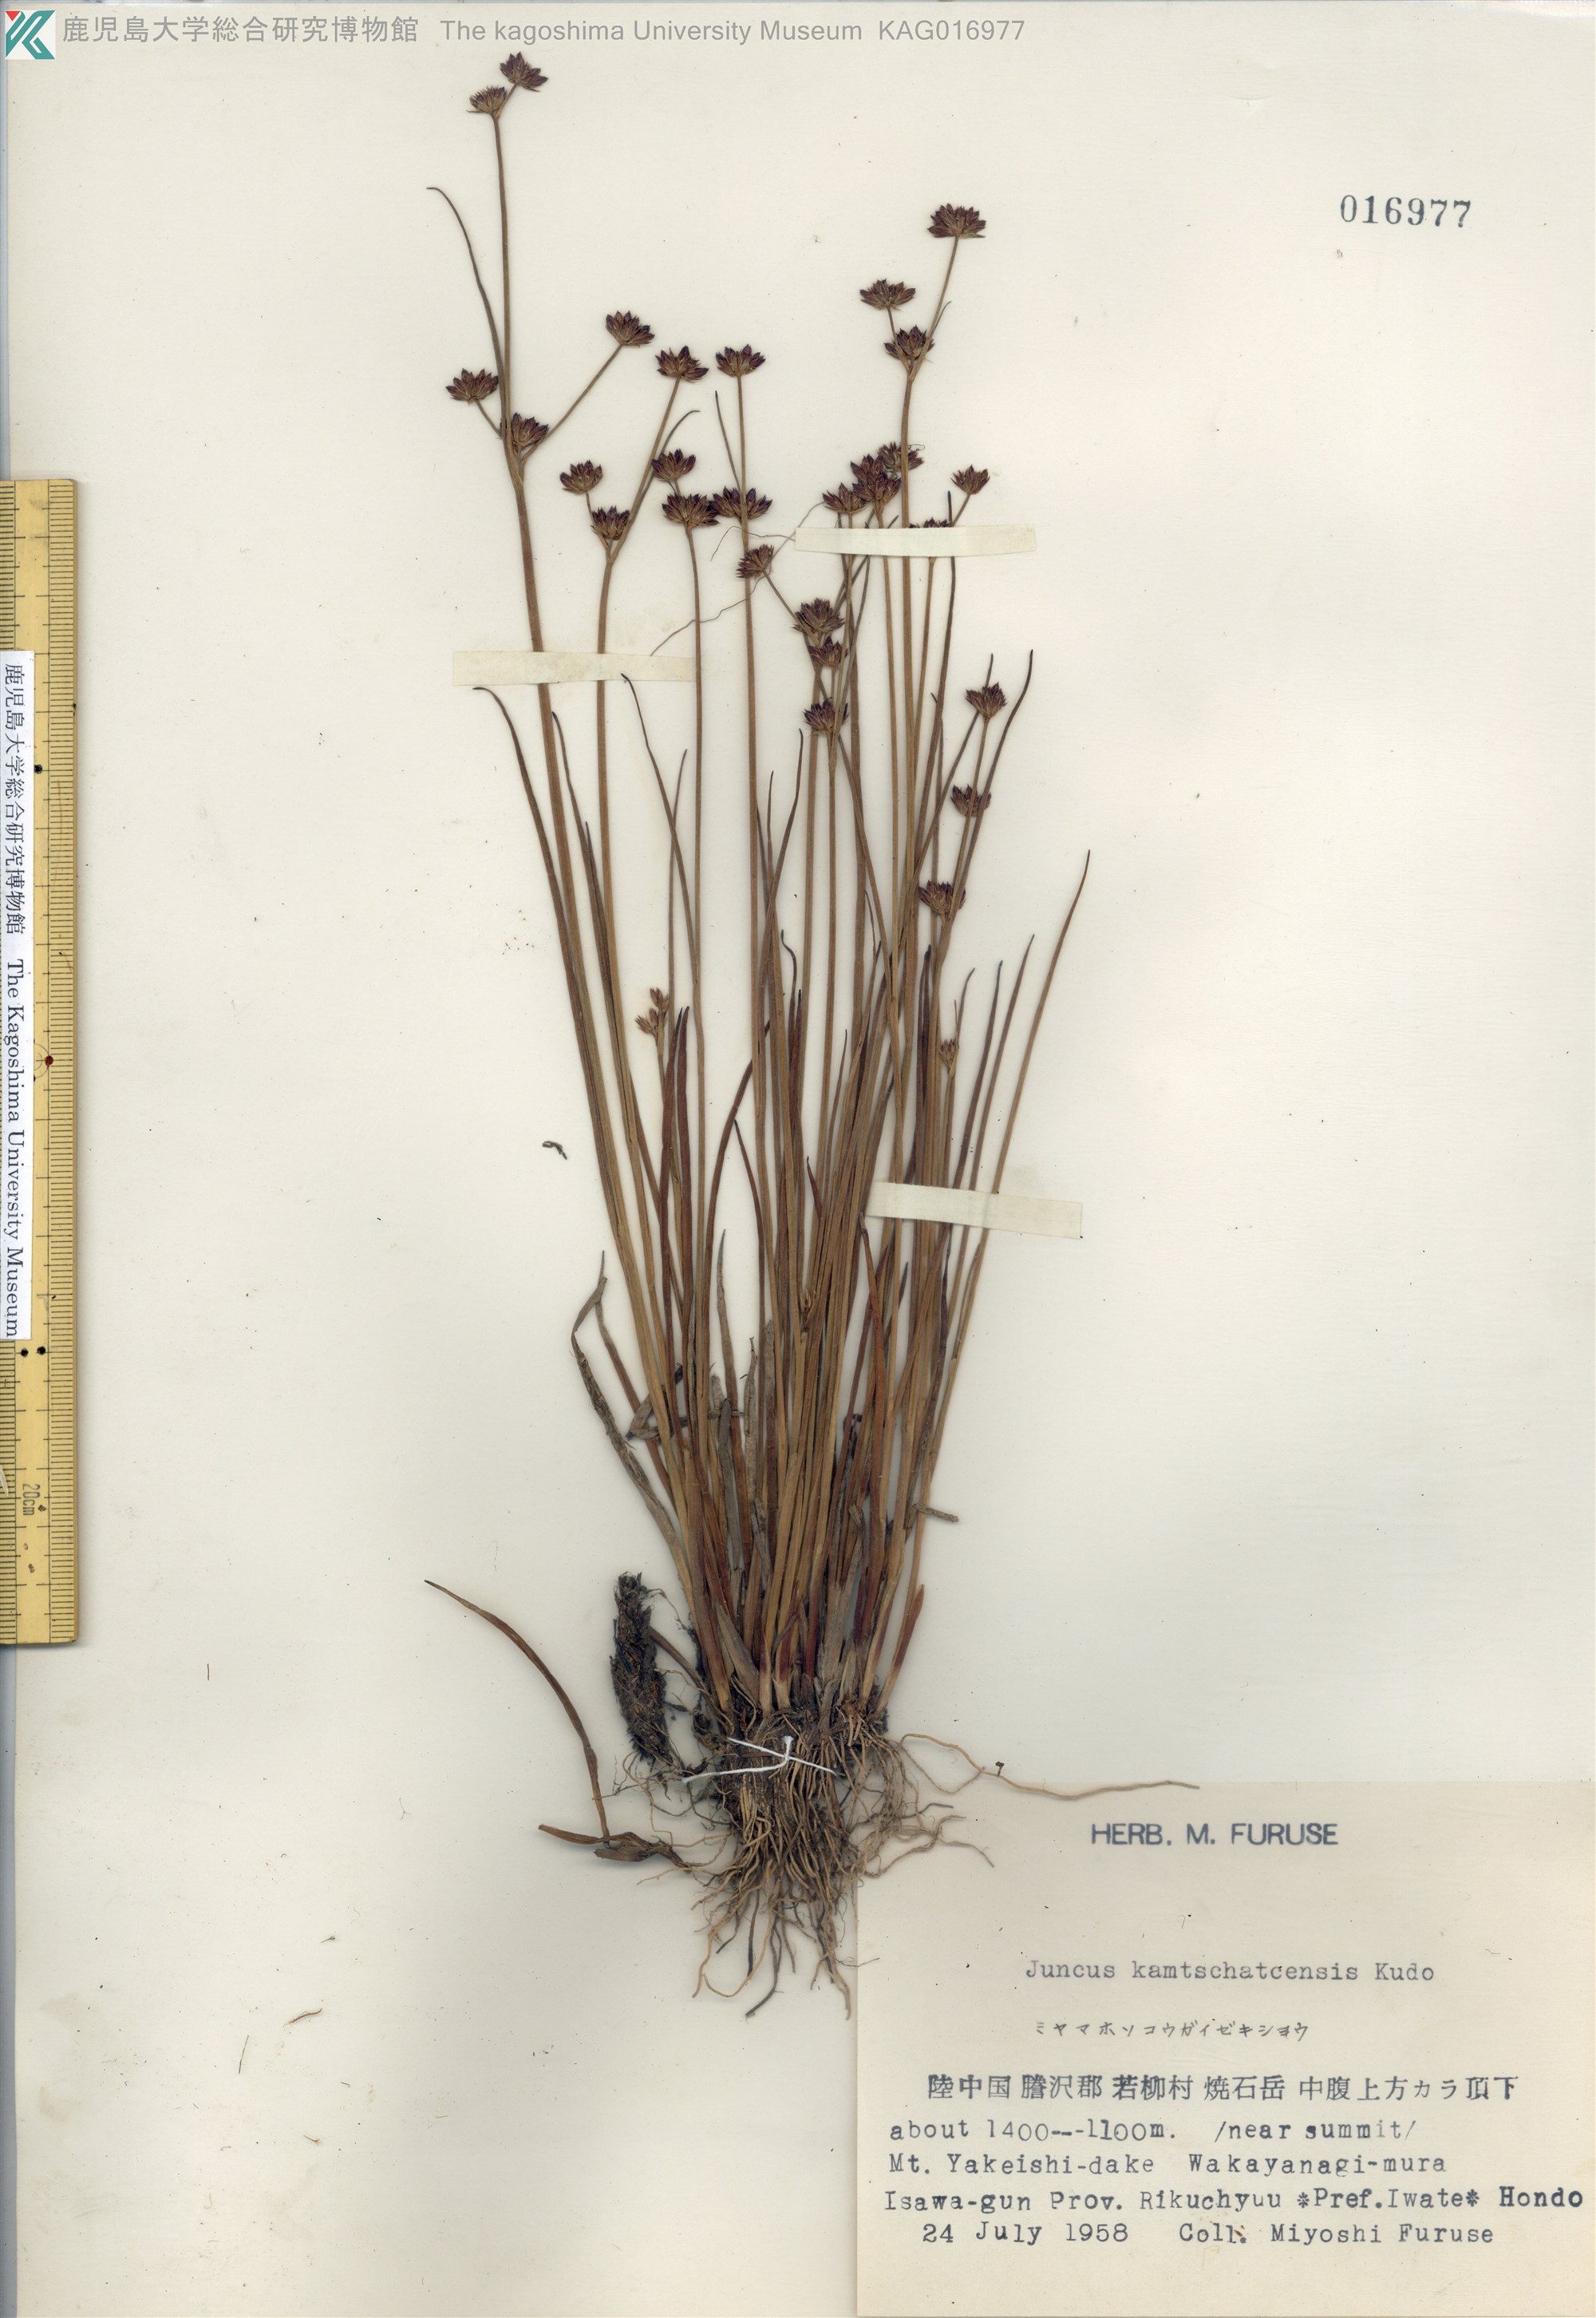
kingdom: Plantae
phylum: Tracheophyta
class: Liliopsida
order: Poales
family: Juncaceae
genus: Juncus
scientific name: Juncus fauriensis
